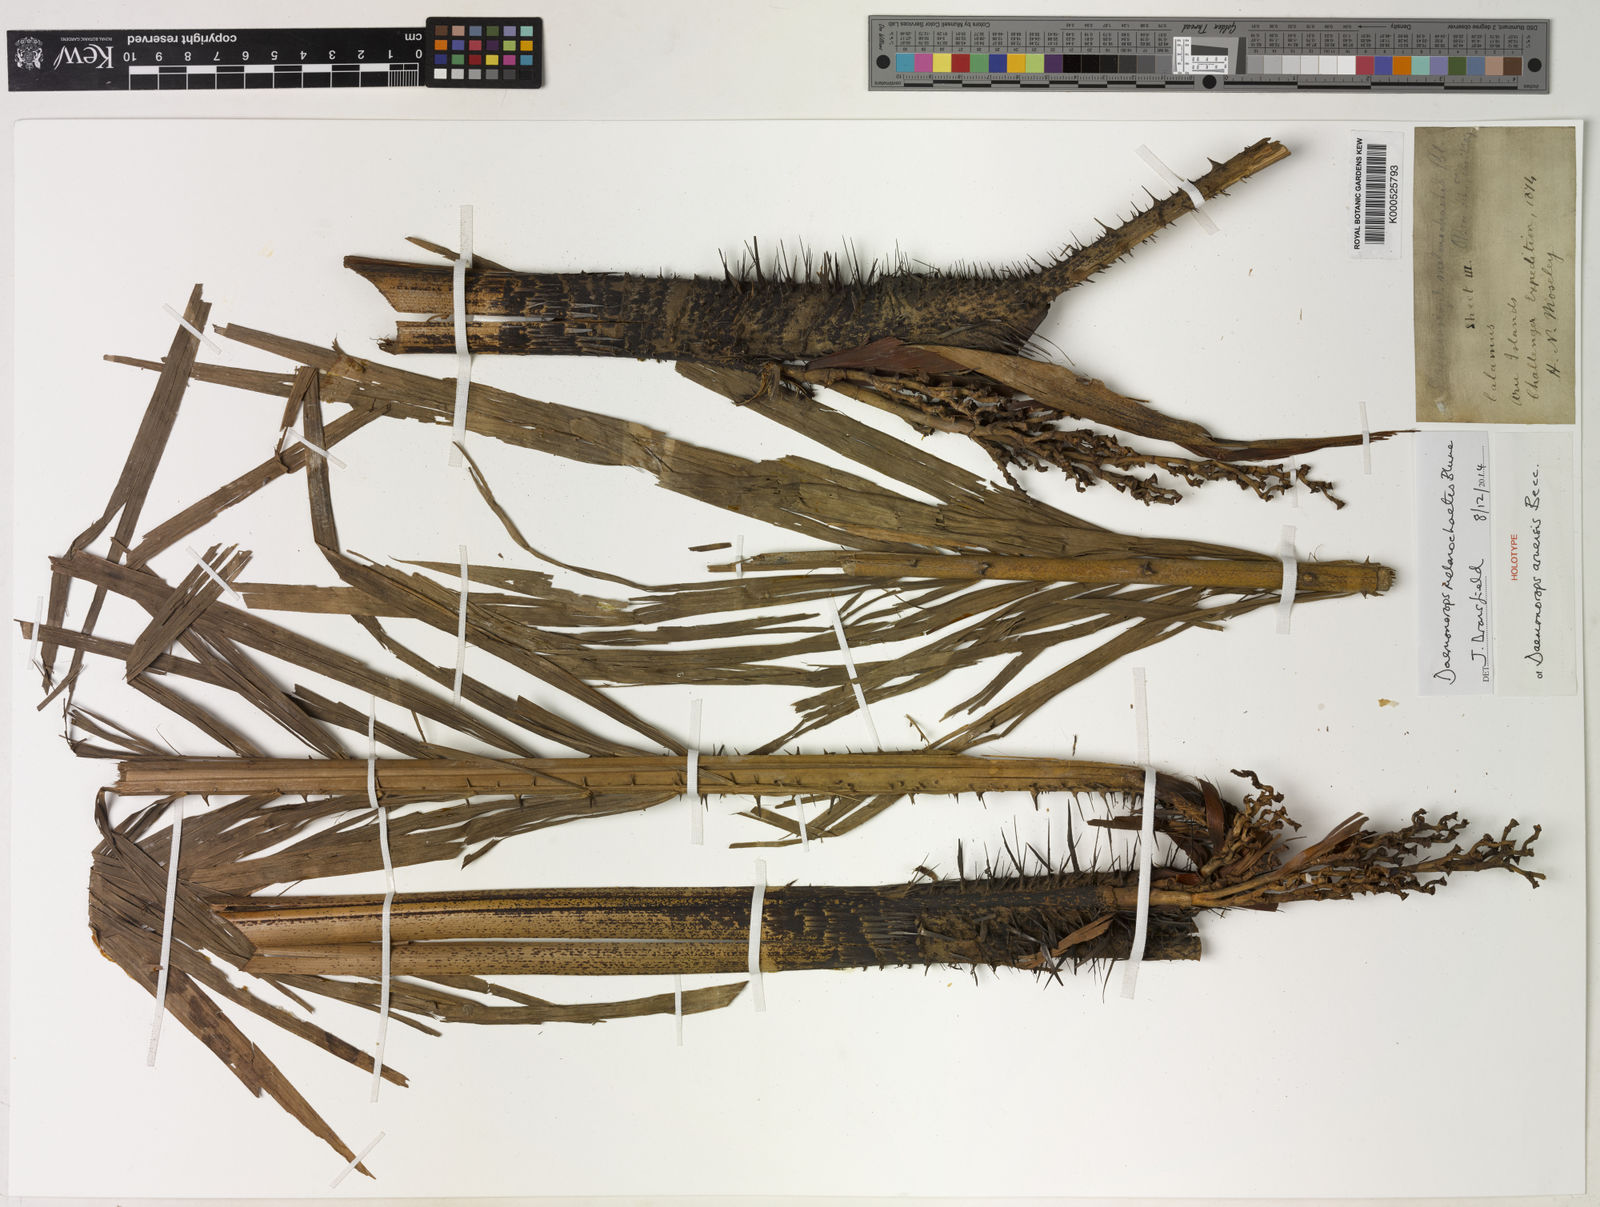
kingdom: Plantae
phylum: Tracheophyta
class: Liliopsida
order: Arecales
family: Arecaceae
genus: Calamus
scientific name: Calamus melanochaetes
